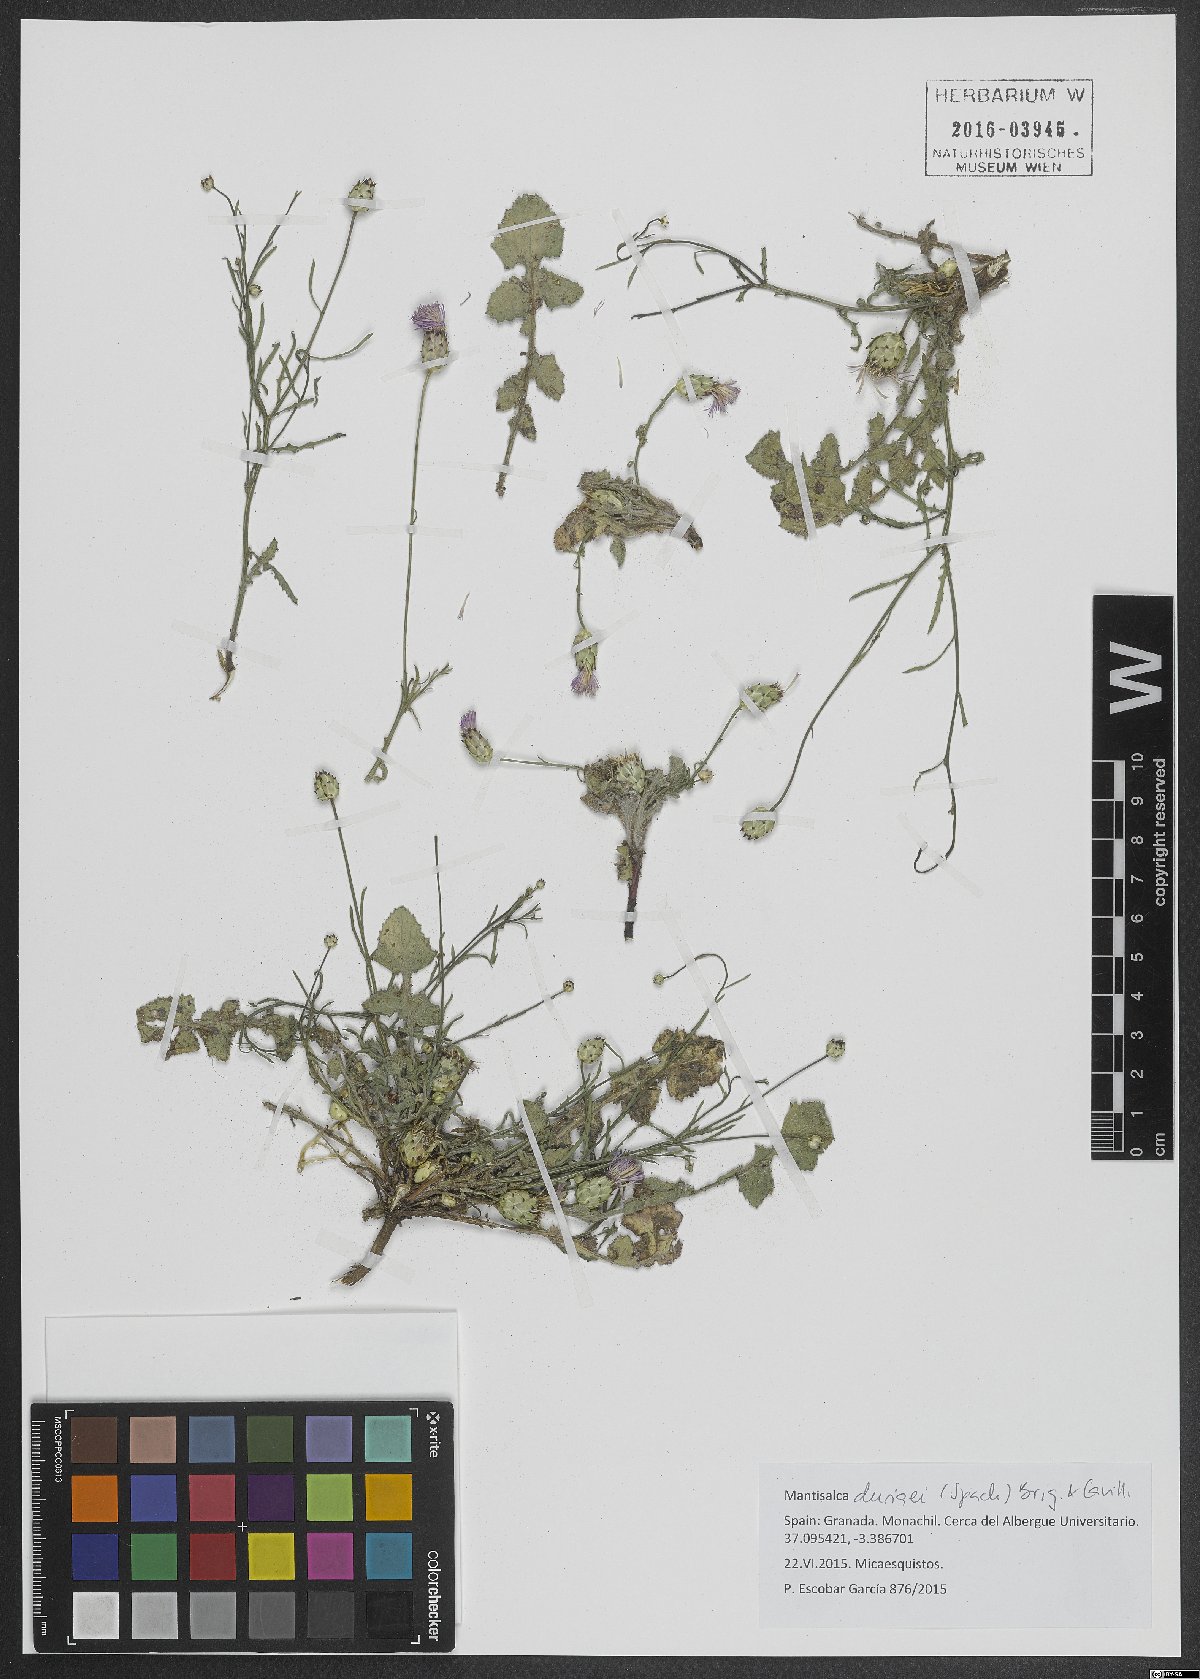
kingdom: Plantae
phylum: Tracheophyta
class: Magnoliopsida
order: Asterales
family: Asteraceae
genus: Mantisalca
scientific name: Mantisalca duriaei
